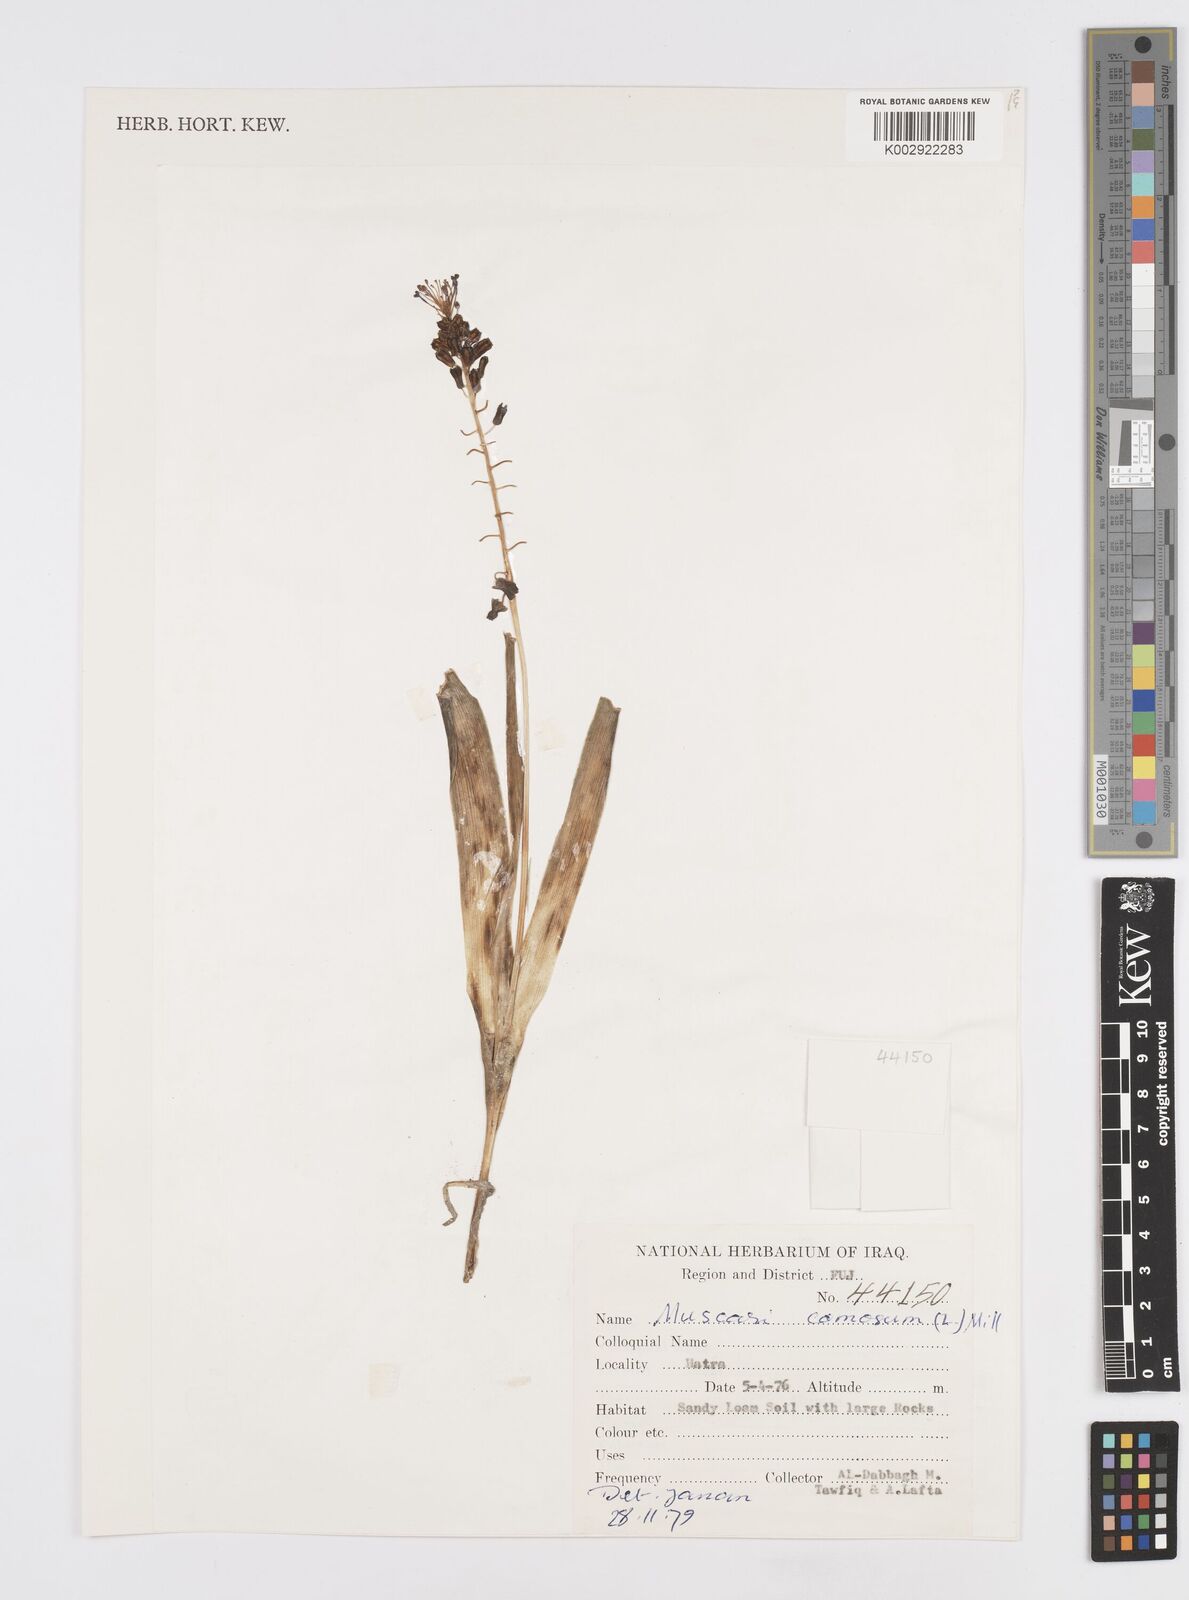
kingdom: Plantae
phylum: Tracheophyta
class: Liliopsida
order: Asparagales
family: Asparagaceae
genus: Muscari
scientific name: Muscari comosum
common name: Tassel hyacinth
